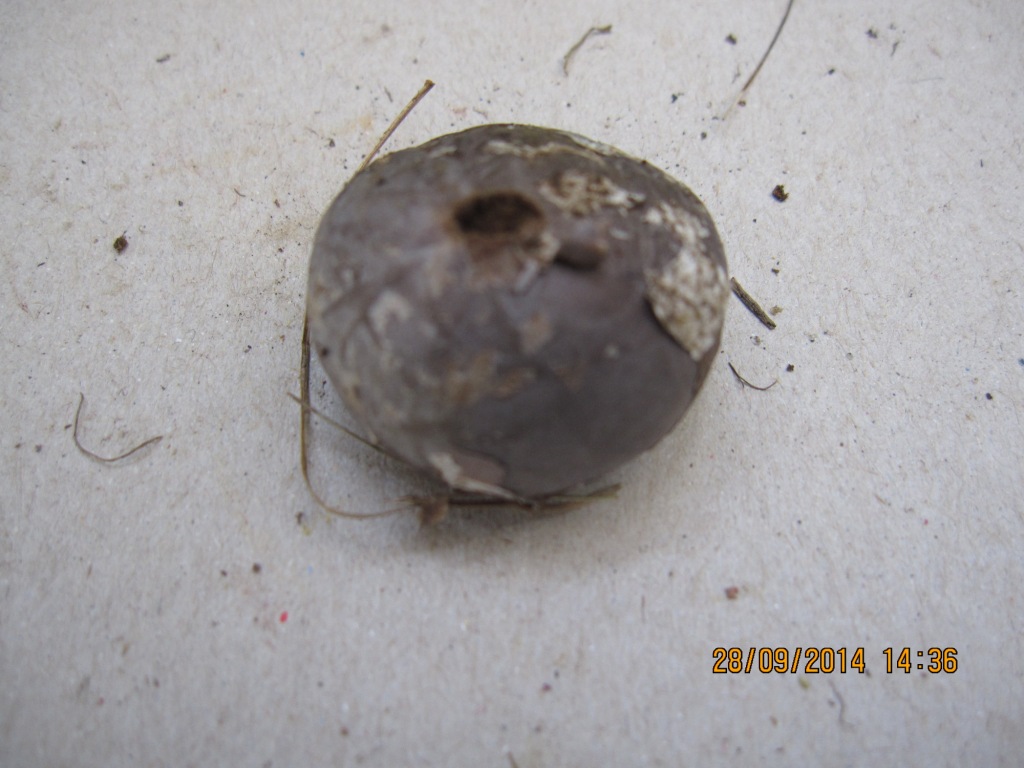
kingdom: Fungi
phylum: Basidiomycota
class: Agaricomycetes
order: Agaricales
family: Lycoperdaceae
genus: Bovista
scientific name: Bovista plumbea
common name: blygrå bovist
